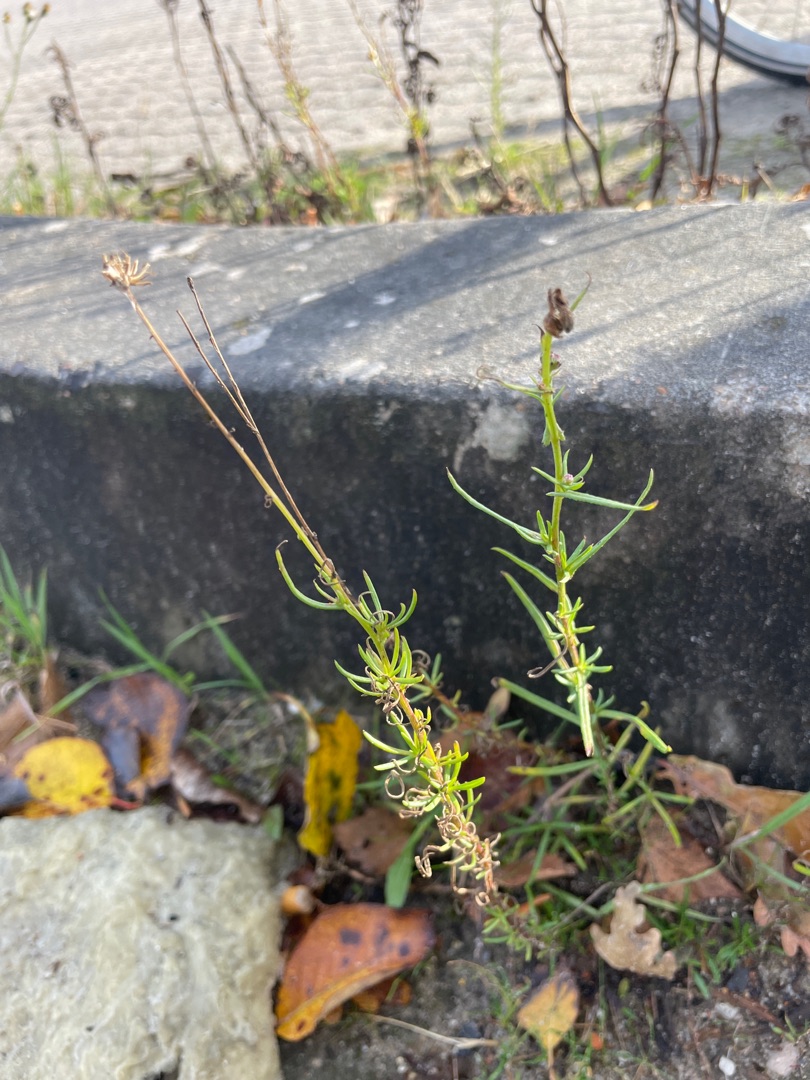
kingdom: Plantae
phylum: Tracheophyta
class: Magnoliopsida
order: Asterales
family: Asteraceae
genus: Senecio
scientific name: Senecio inaequidens
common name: Smalbladet brandbæger
